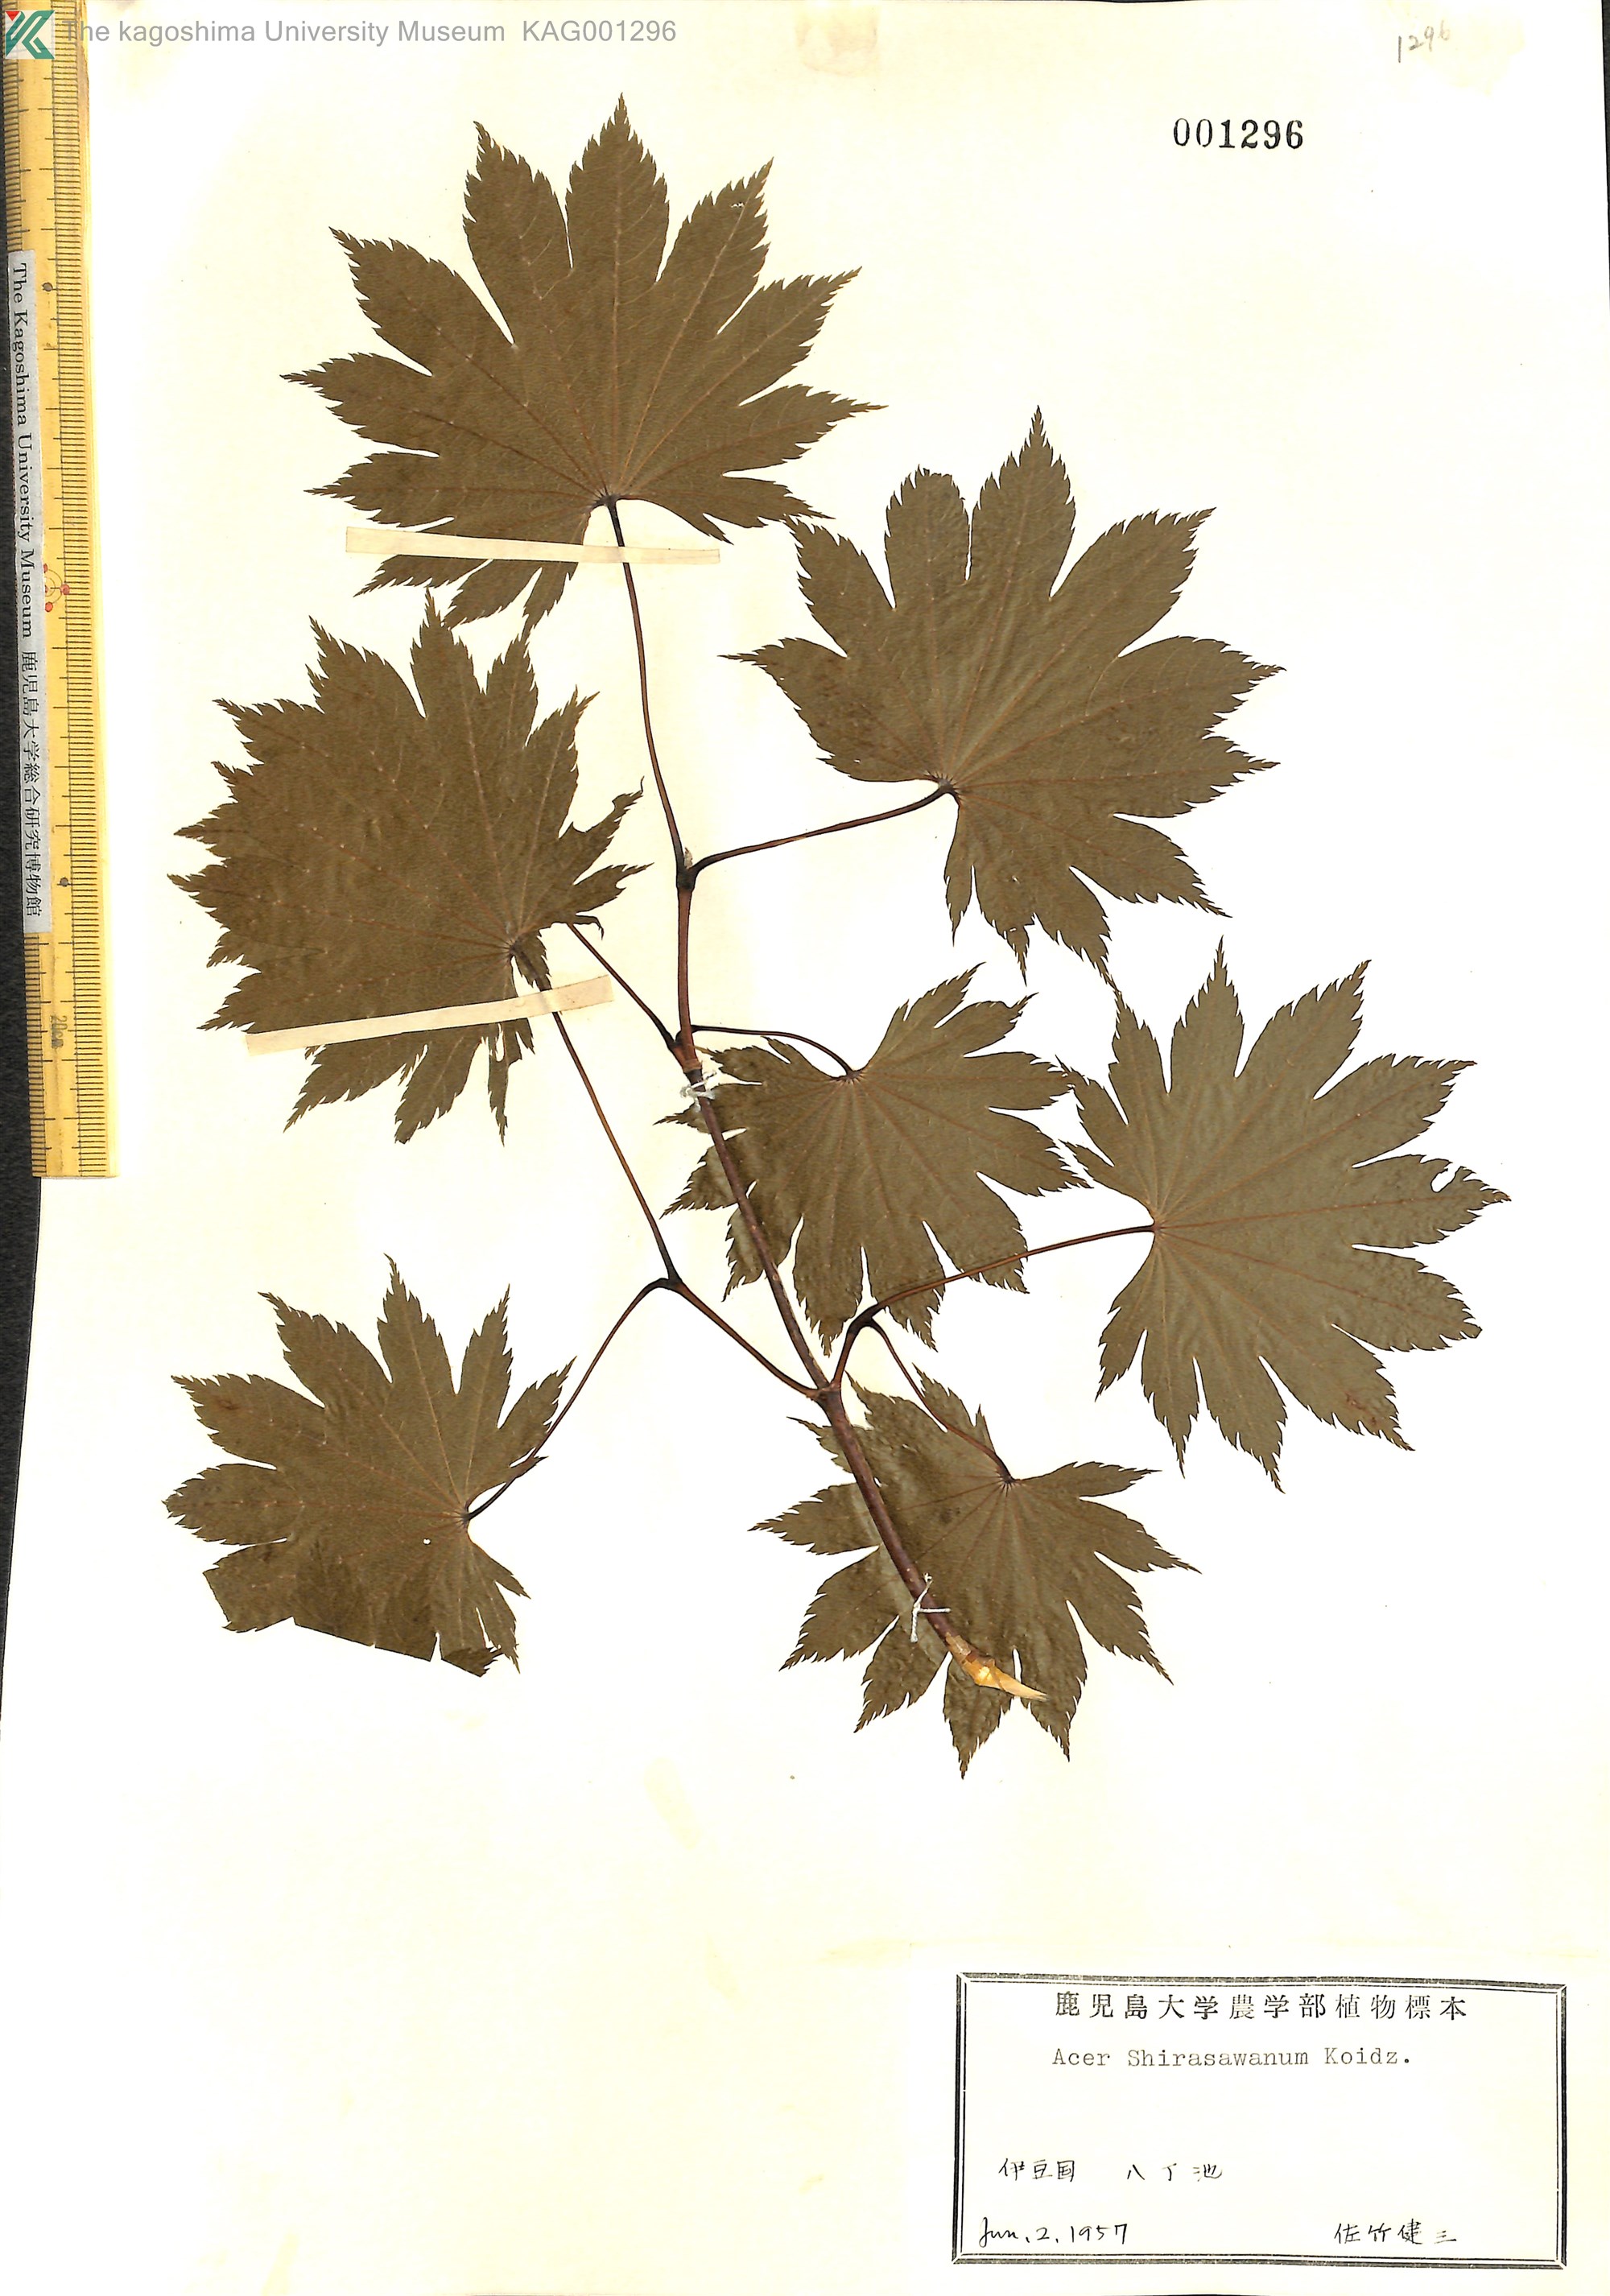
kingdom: Plantae
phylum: Tracheophyta
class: Magnoliopsida
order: Sapindales
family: Sapindaceae
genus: Acer
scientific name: Acer shirasawanum
